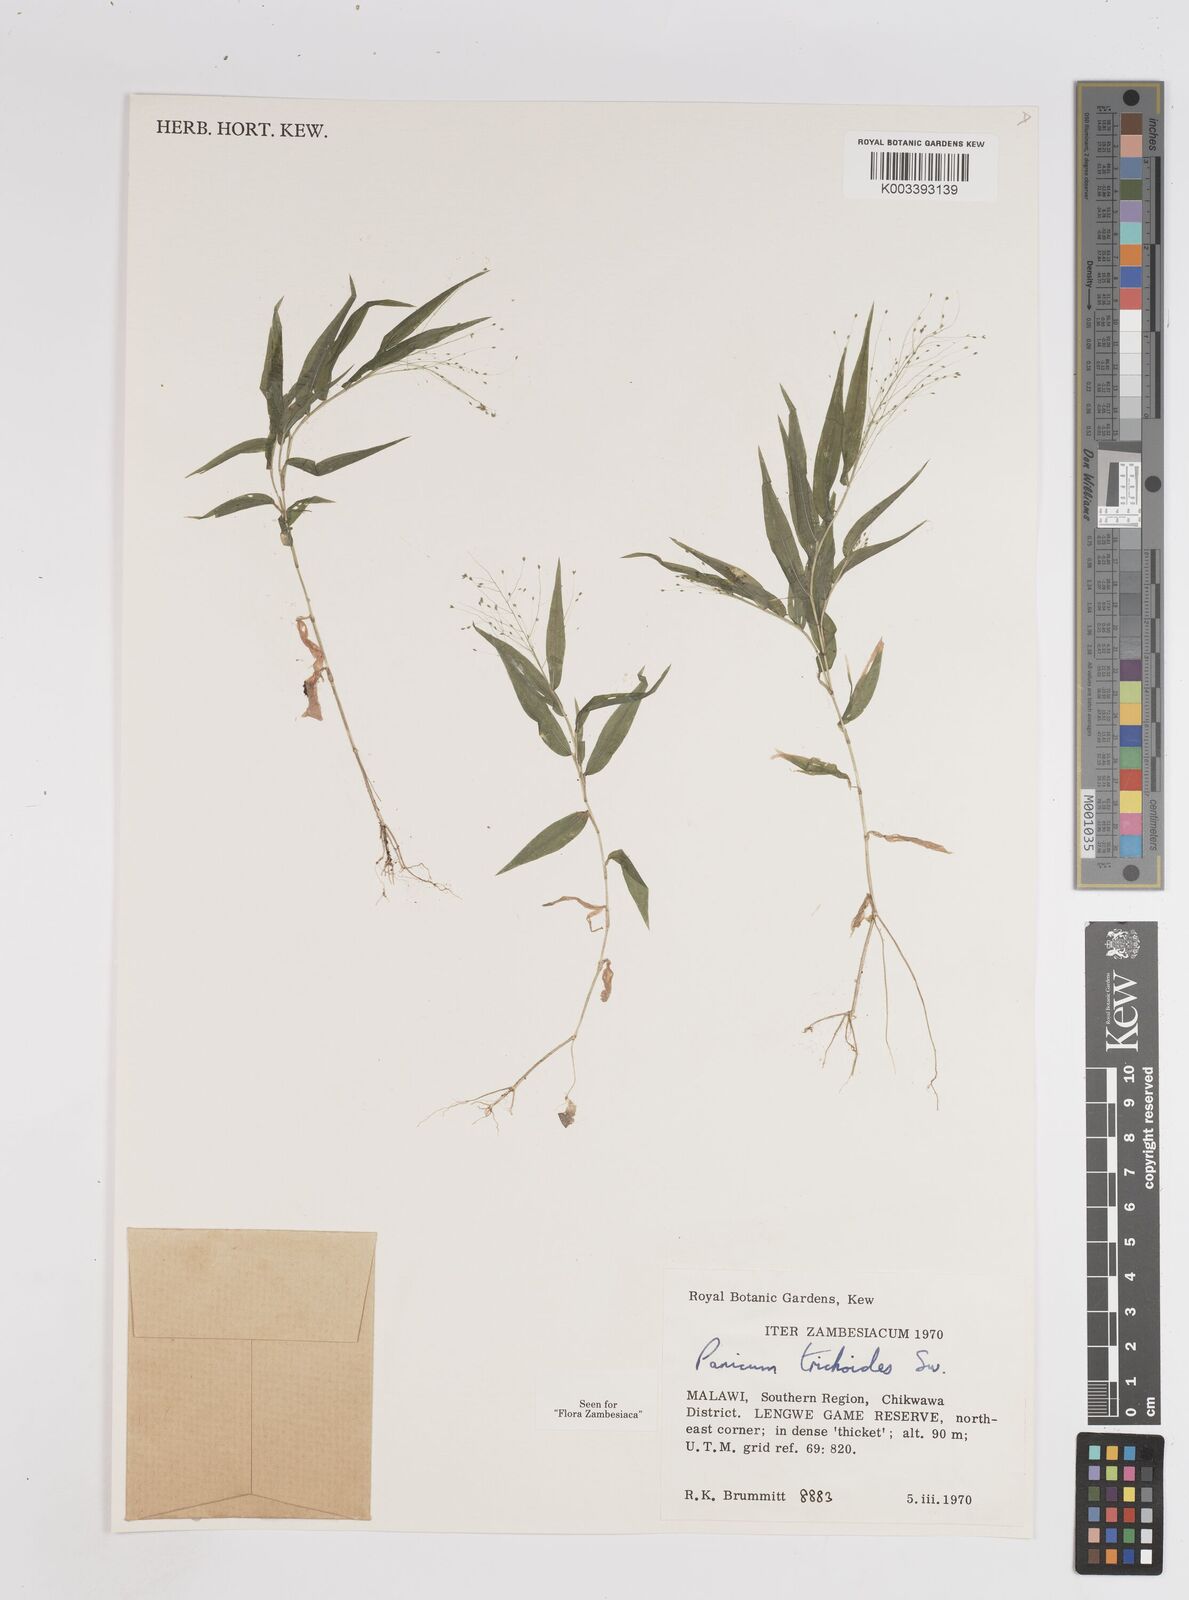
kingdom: Plantae
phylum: Tracheophyta
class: Liliopsida
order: Poales
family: Poaceae
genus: Panicum
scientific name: Panicum trichoides
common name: Tickle grass
